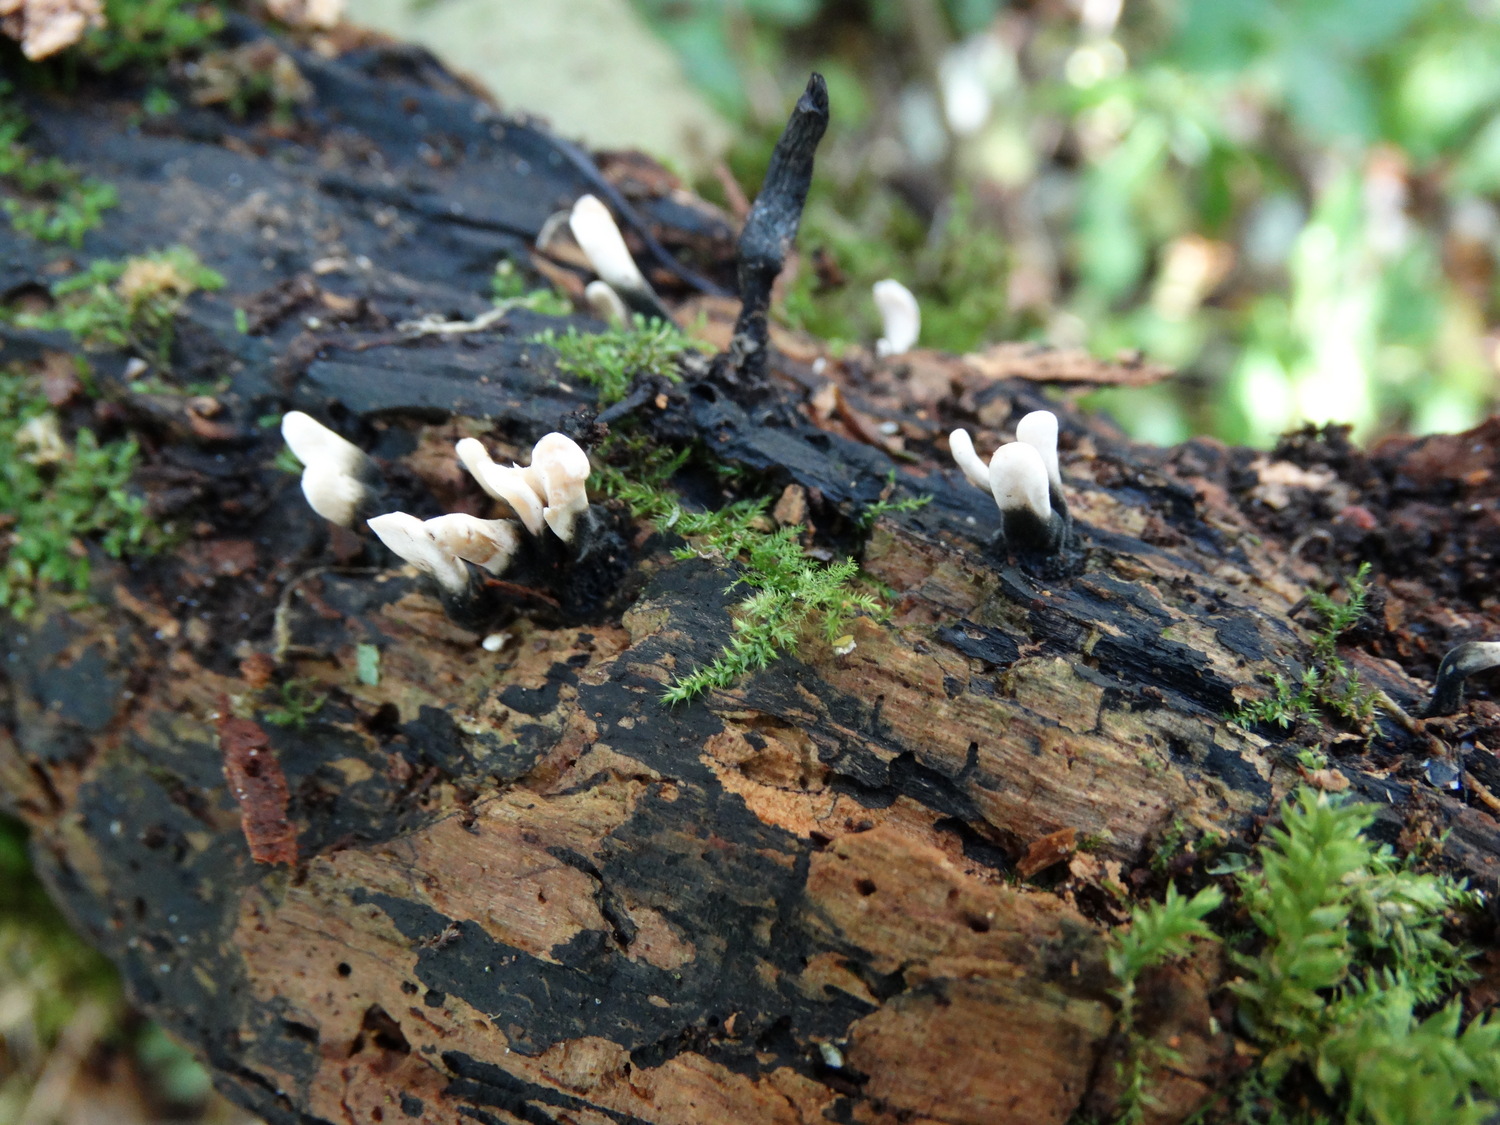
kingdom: Fungi
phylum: Ascomycota
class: Sordariomycetes
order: Xylariales
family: Xylariaceae
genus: Xylaria
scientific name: Xylaria hypoxylon
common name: grenet stødsvamp
